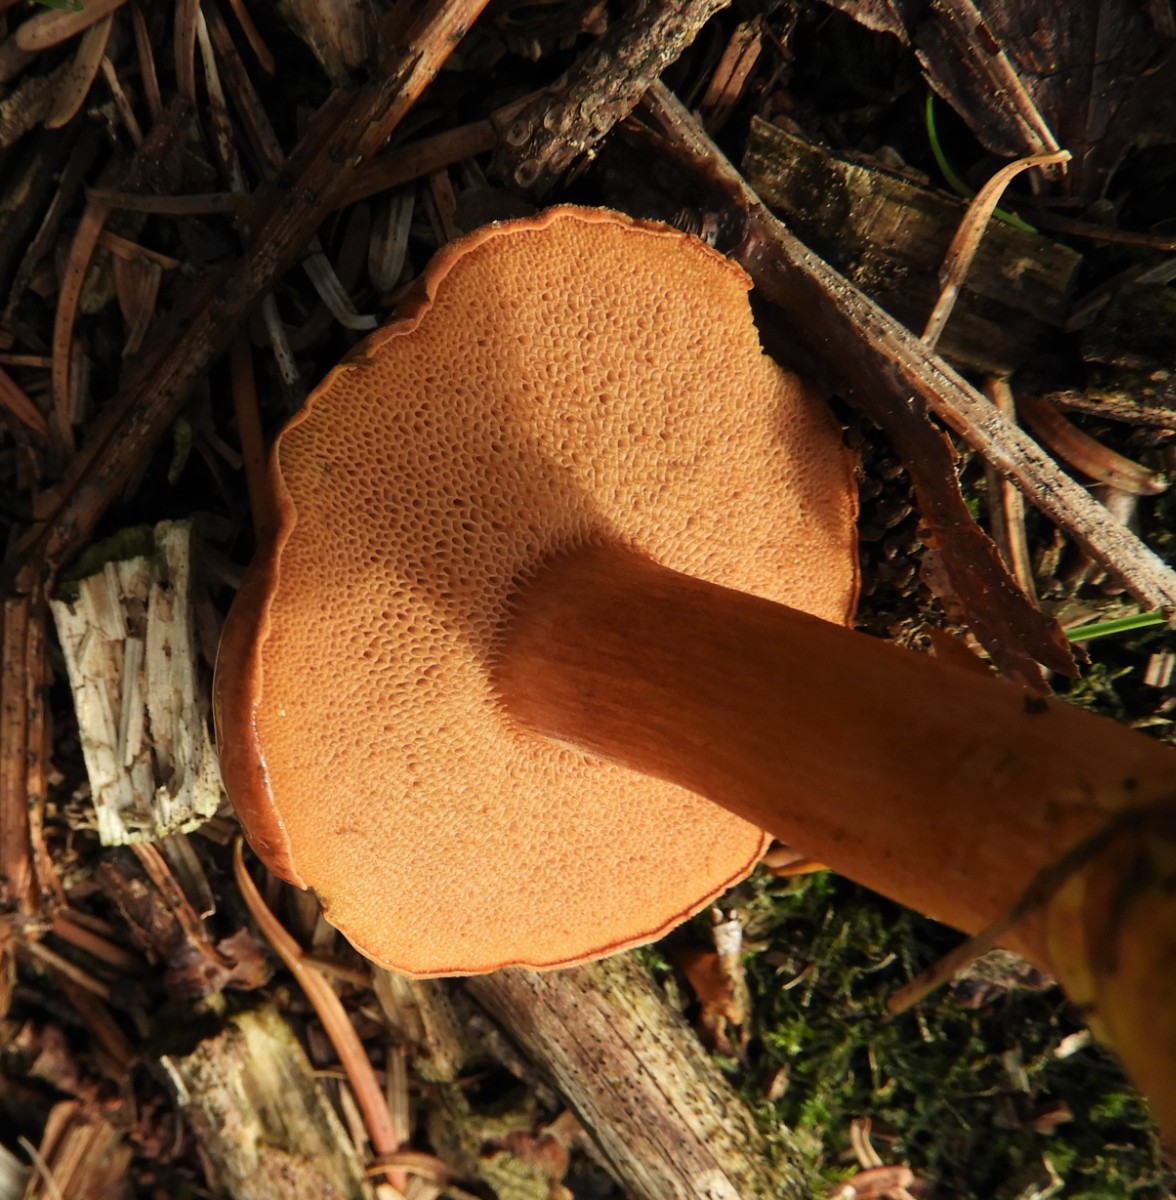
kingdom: Fungi
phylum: Basidiomycota
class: Agaricomycetes
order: Boletales
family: Boletaceae
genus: Chalciporus
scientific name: Chalciporus piperatus
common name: peberrørhat
